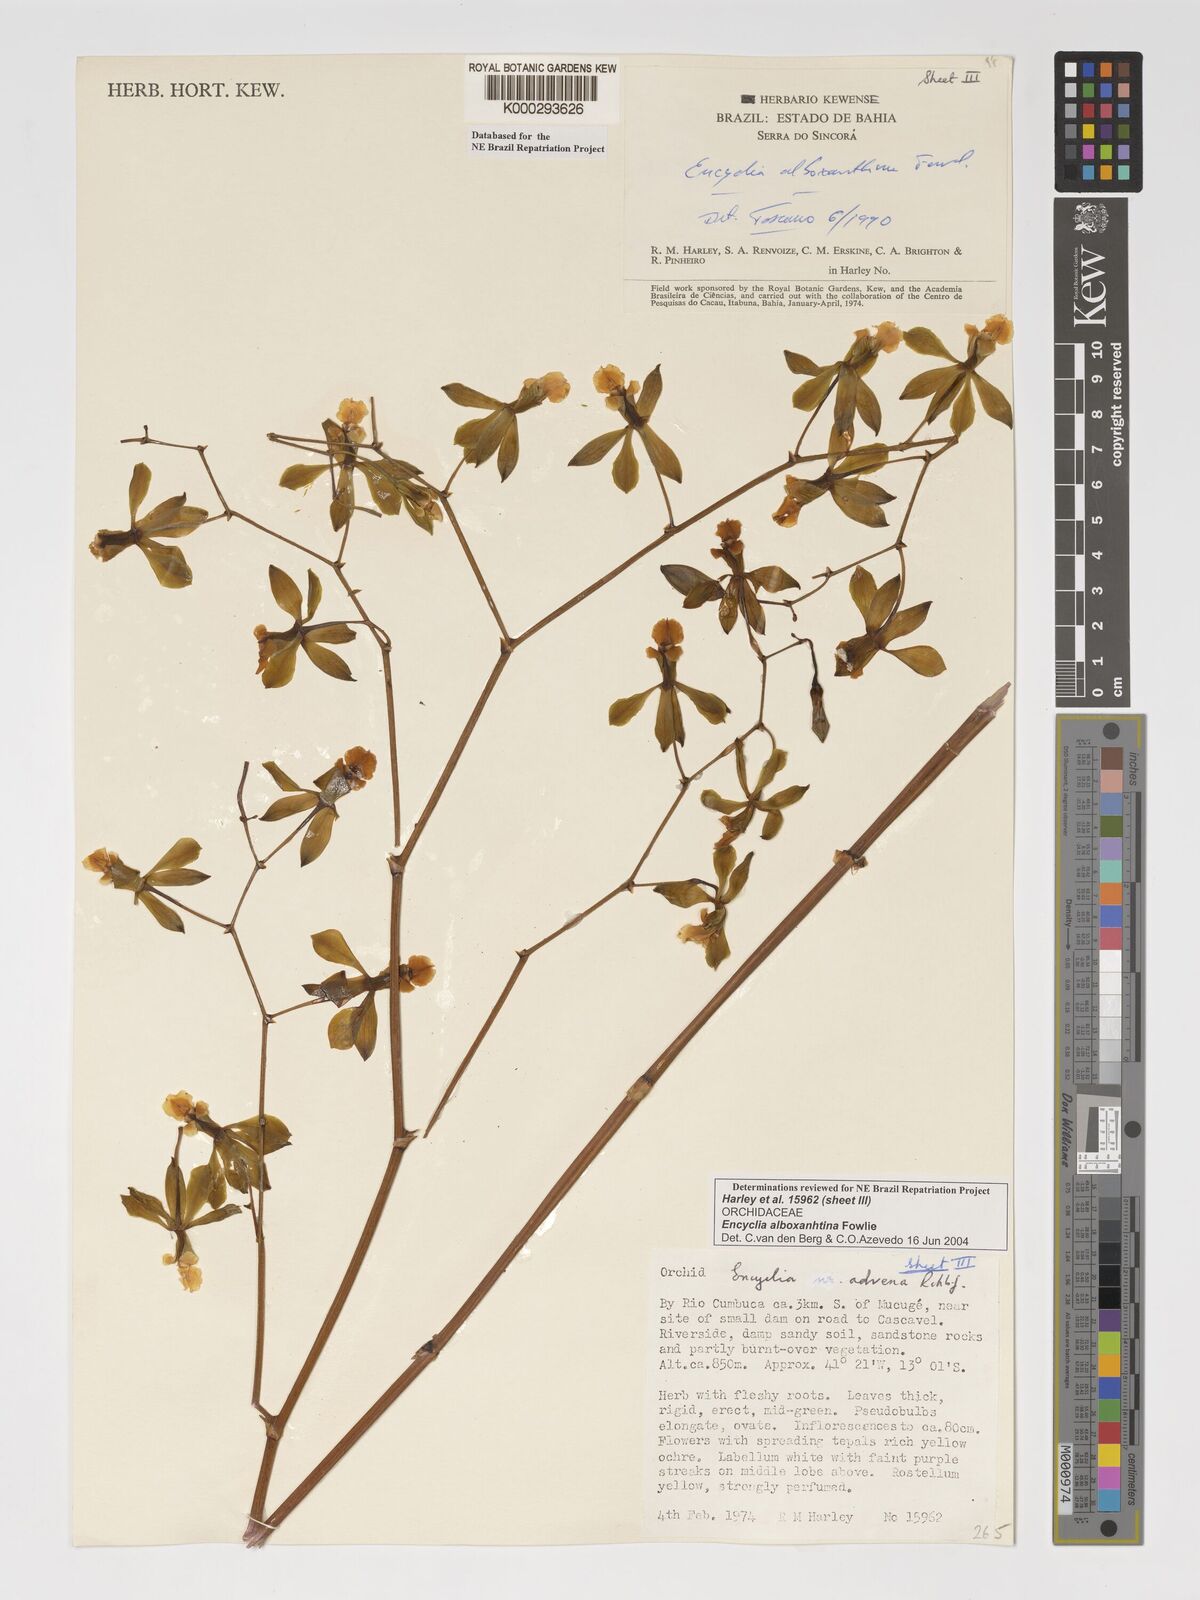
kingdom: Plantae
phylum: Tracheophyta
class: Liliopsida
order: Asparagales
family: Orchidaceae
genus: Encyclia
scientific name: Encyclia alboxanthina
